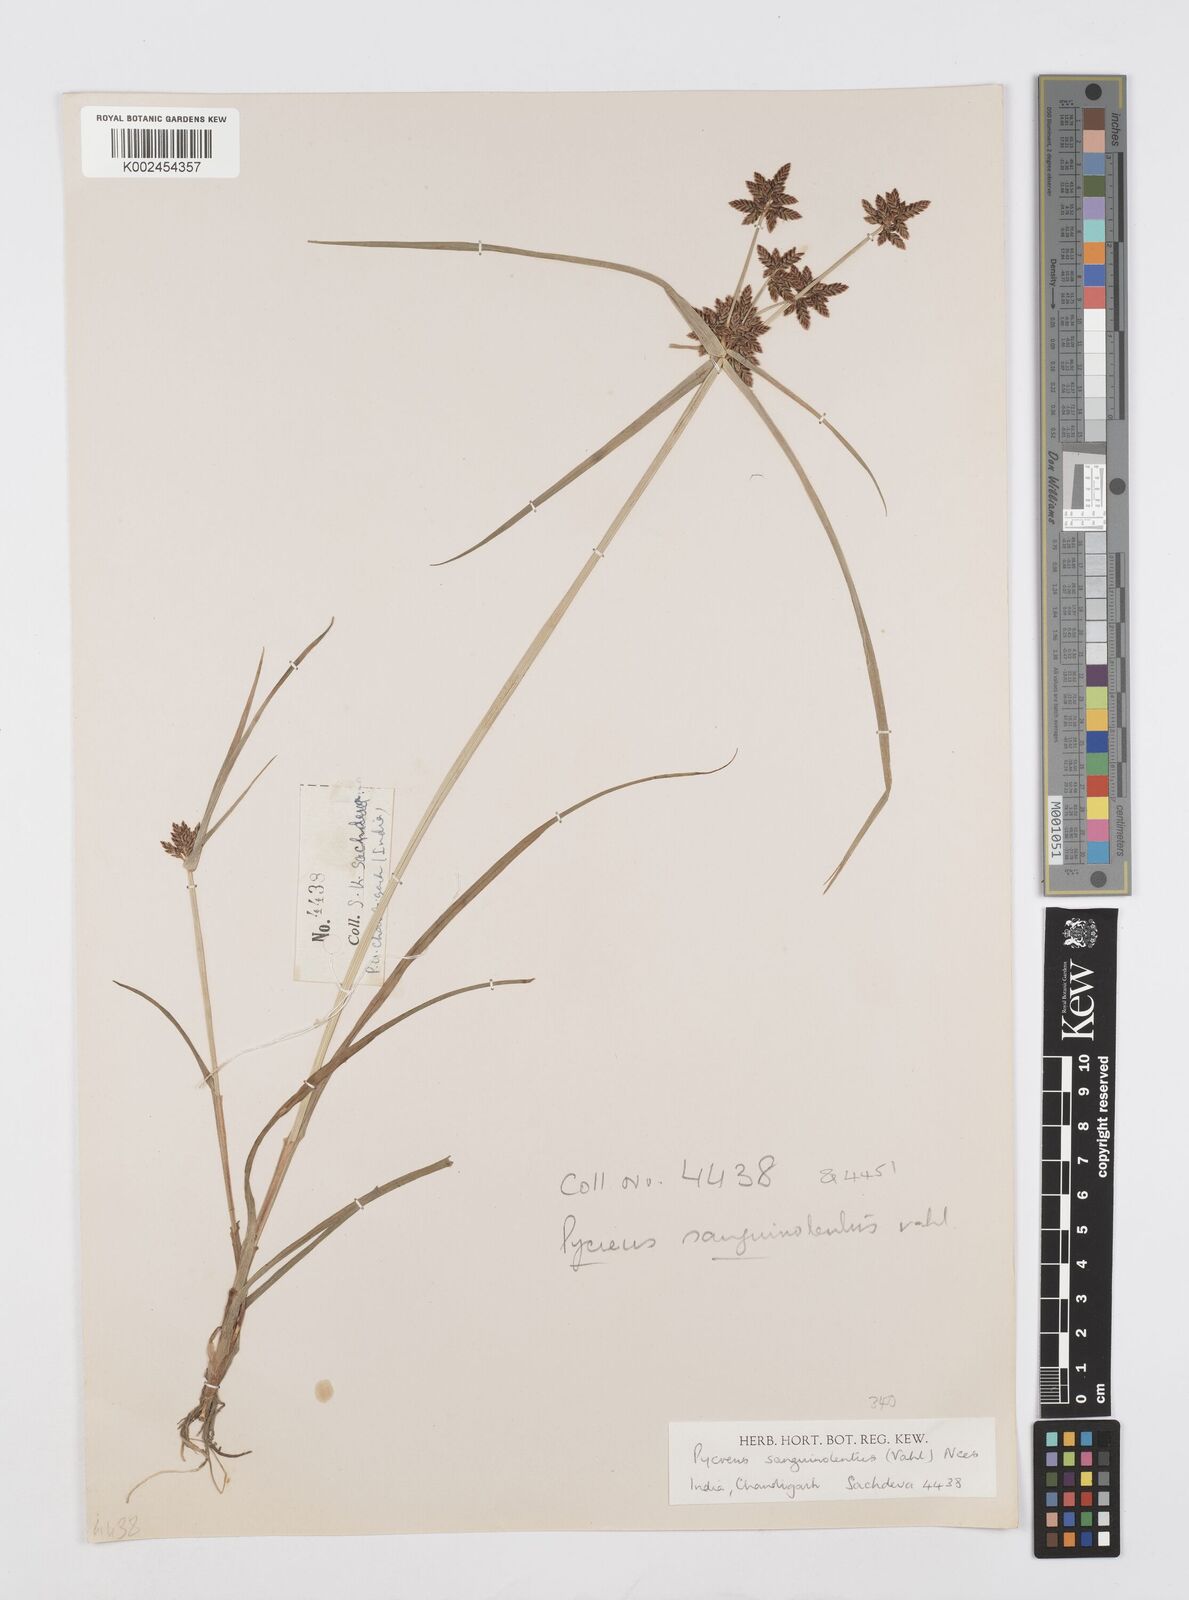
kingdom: Plantae
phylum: Tracheophyta
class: Liliopsida
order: Poales
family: Cyperaceae
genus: Cyperus
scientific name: Cyperus sanguinolentus
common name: Purpleglume flatsedge
